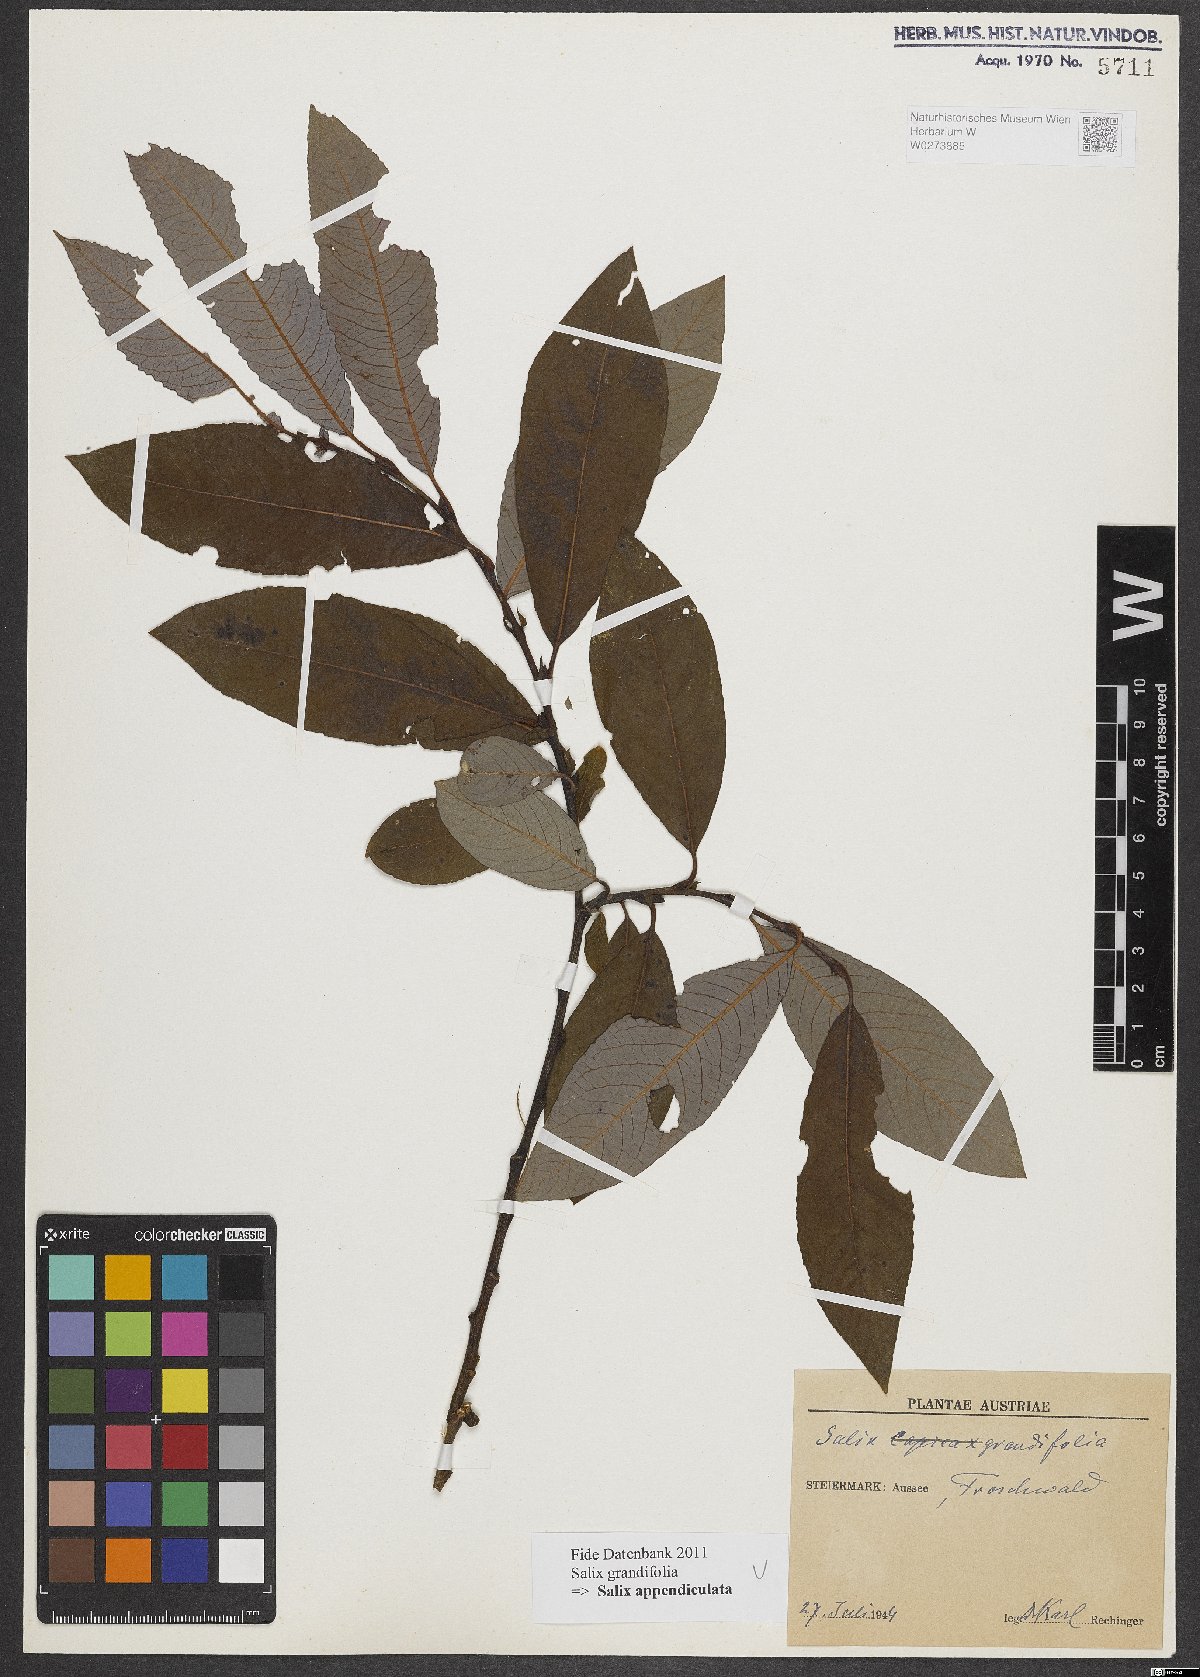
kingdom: Plantae
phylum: Tracheophyta
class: Magnoliopsida
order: Malpighiales
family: Salicaceae
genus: Salix
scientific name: Salix appendiculata
